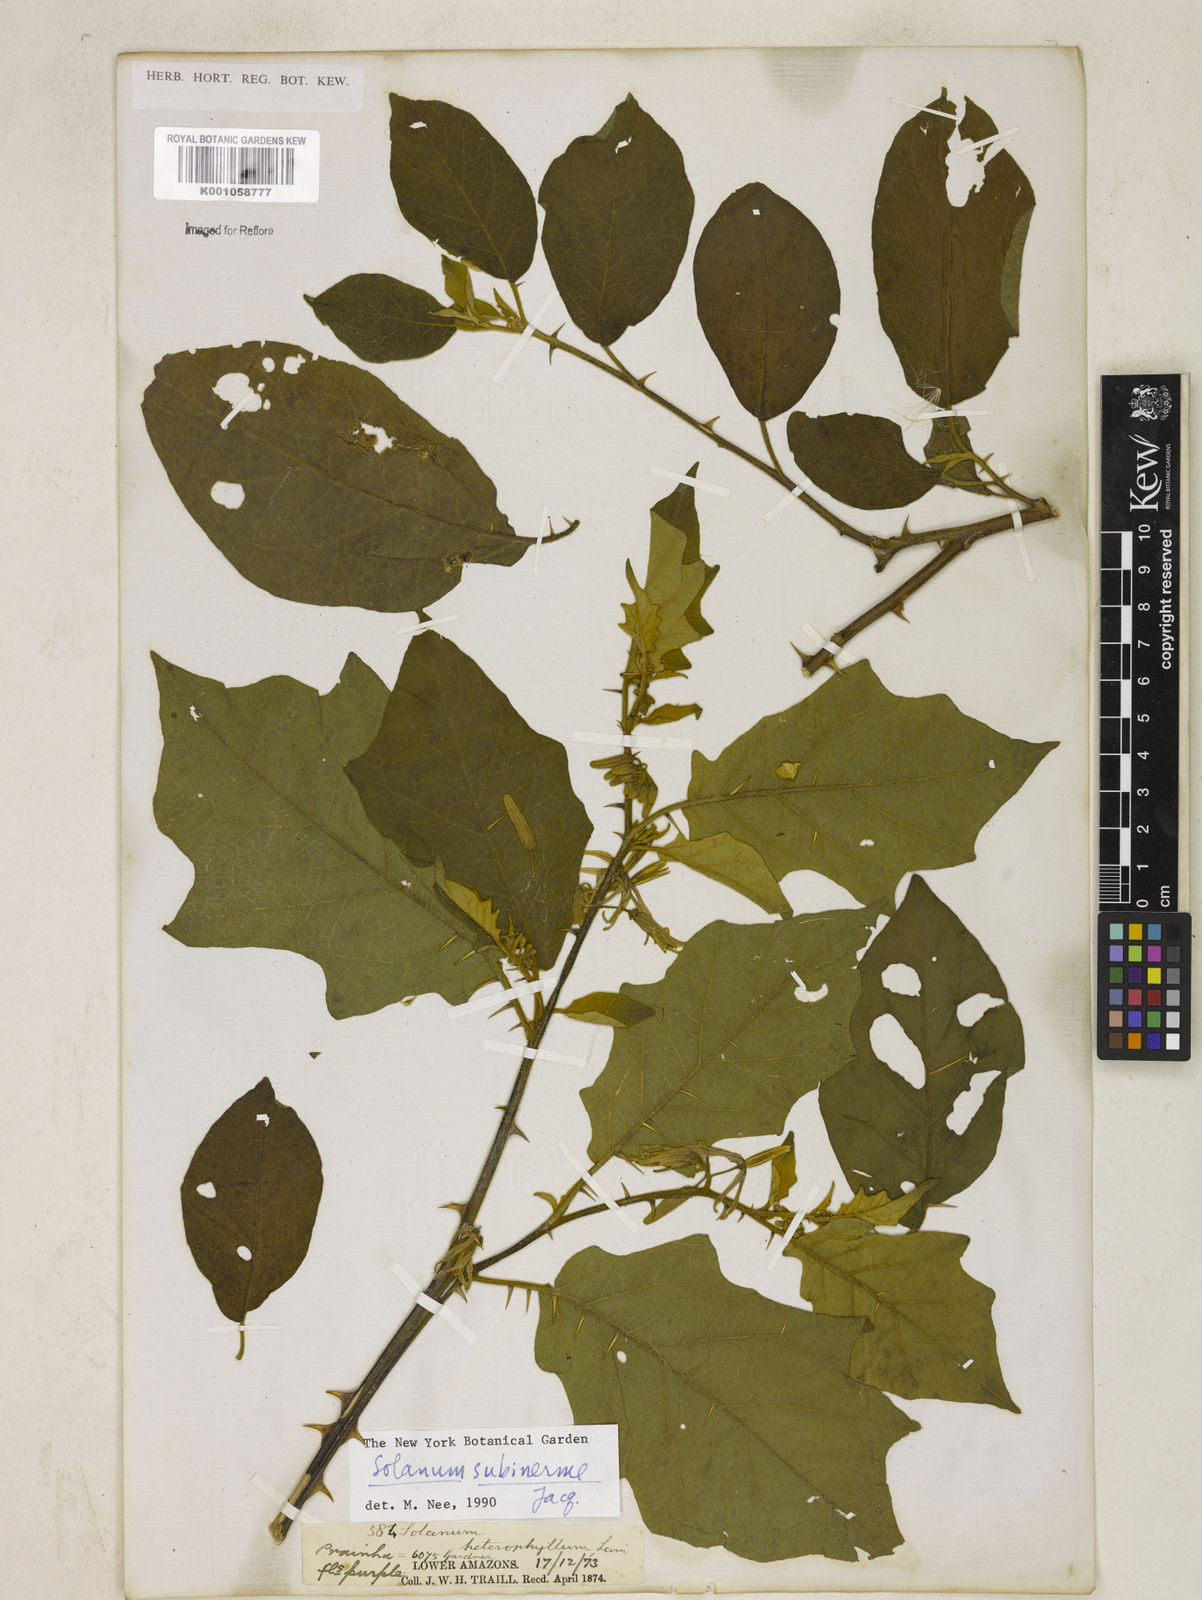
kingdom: Plantae
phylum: Tracheophyta
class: Magnoliopsida
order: Solanales
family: Solanaceae
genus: Solanum
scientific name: Solanum subinerme
